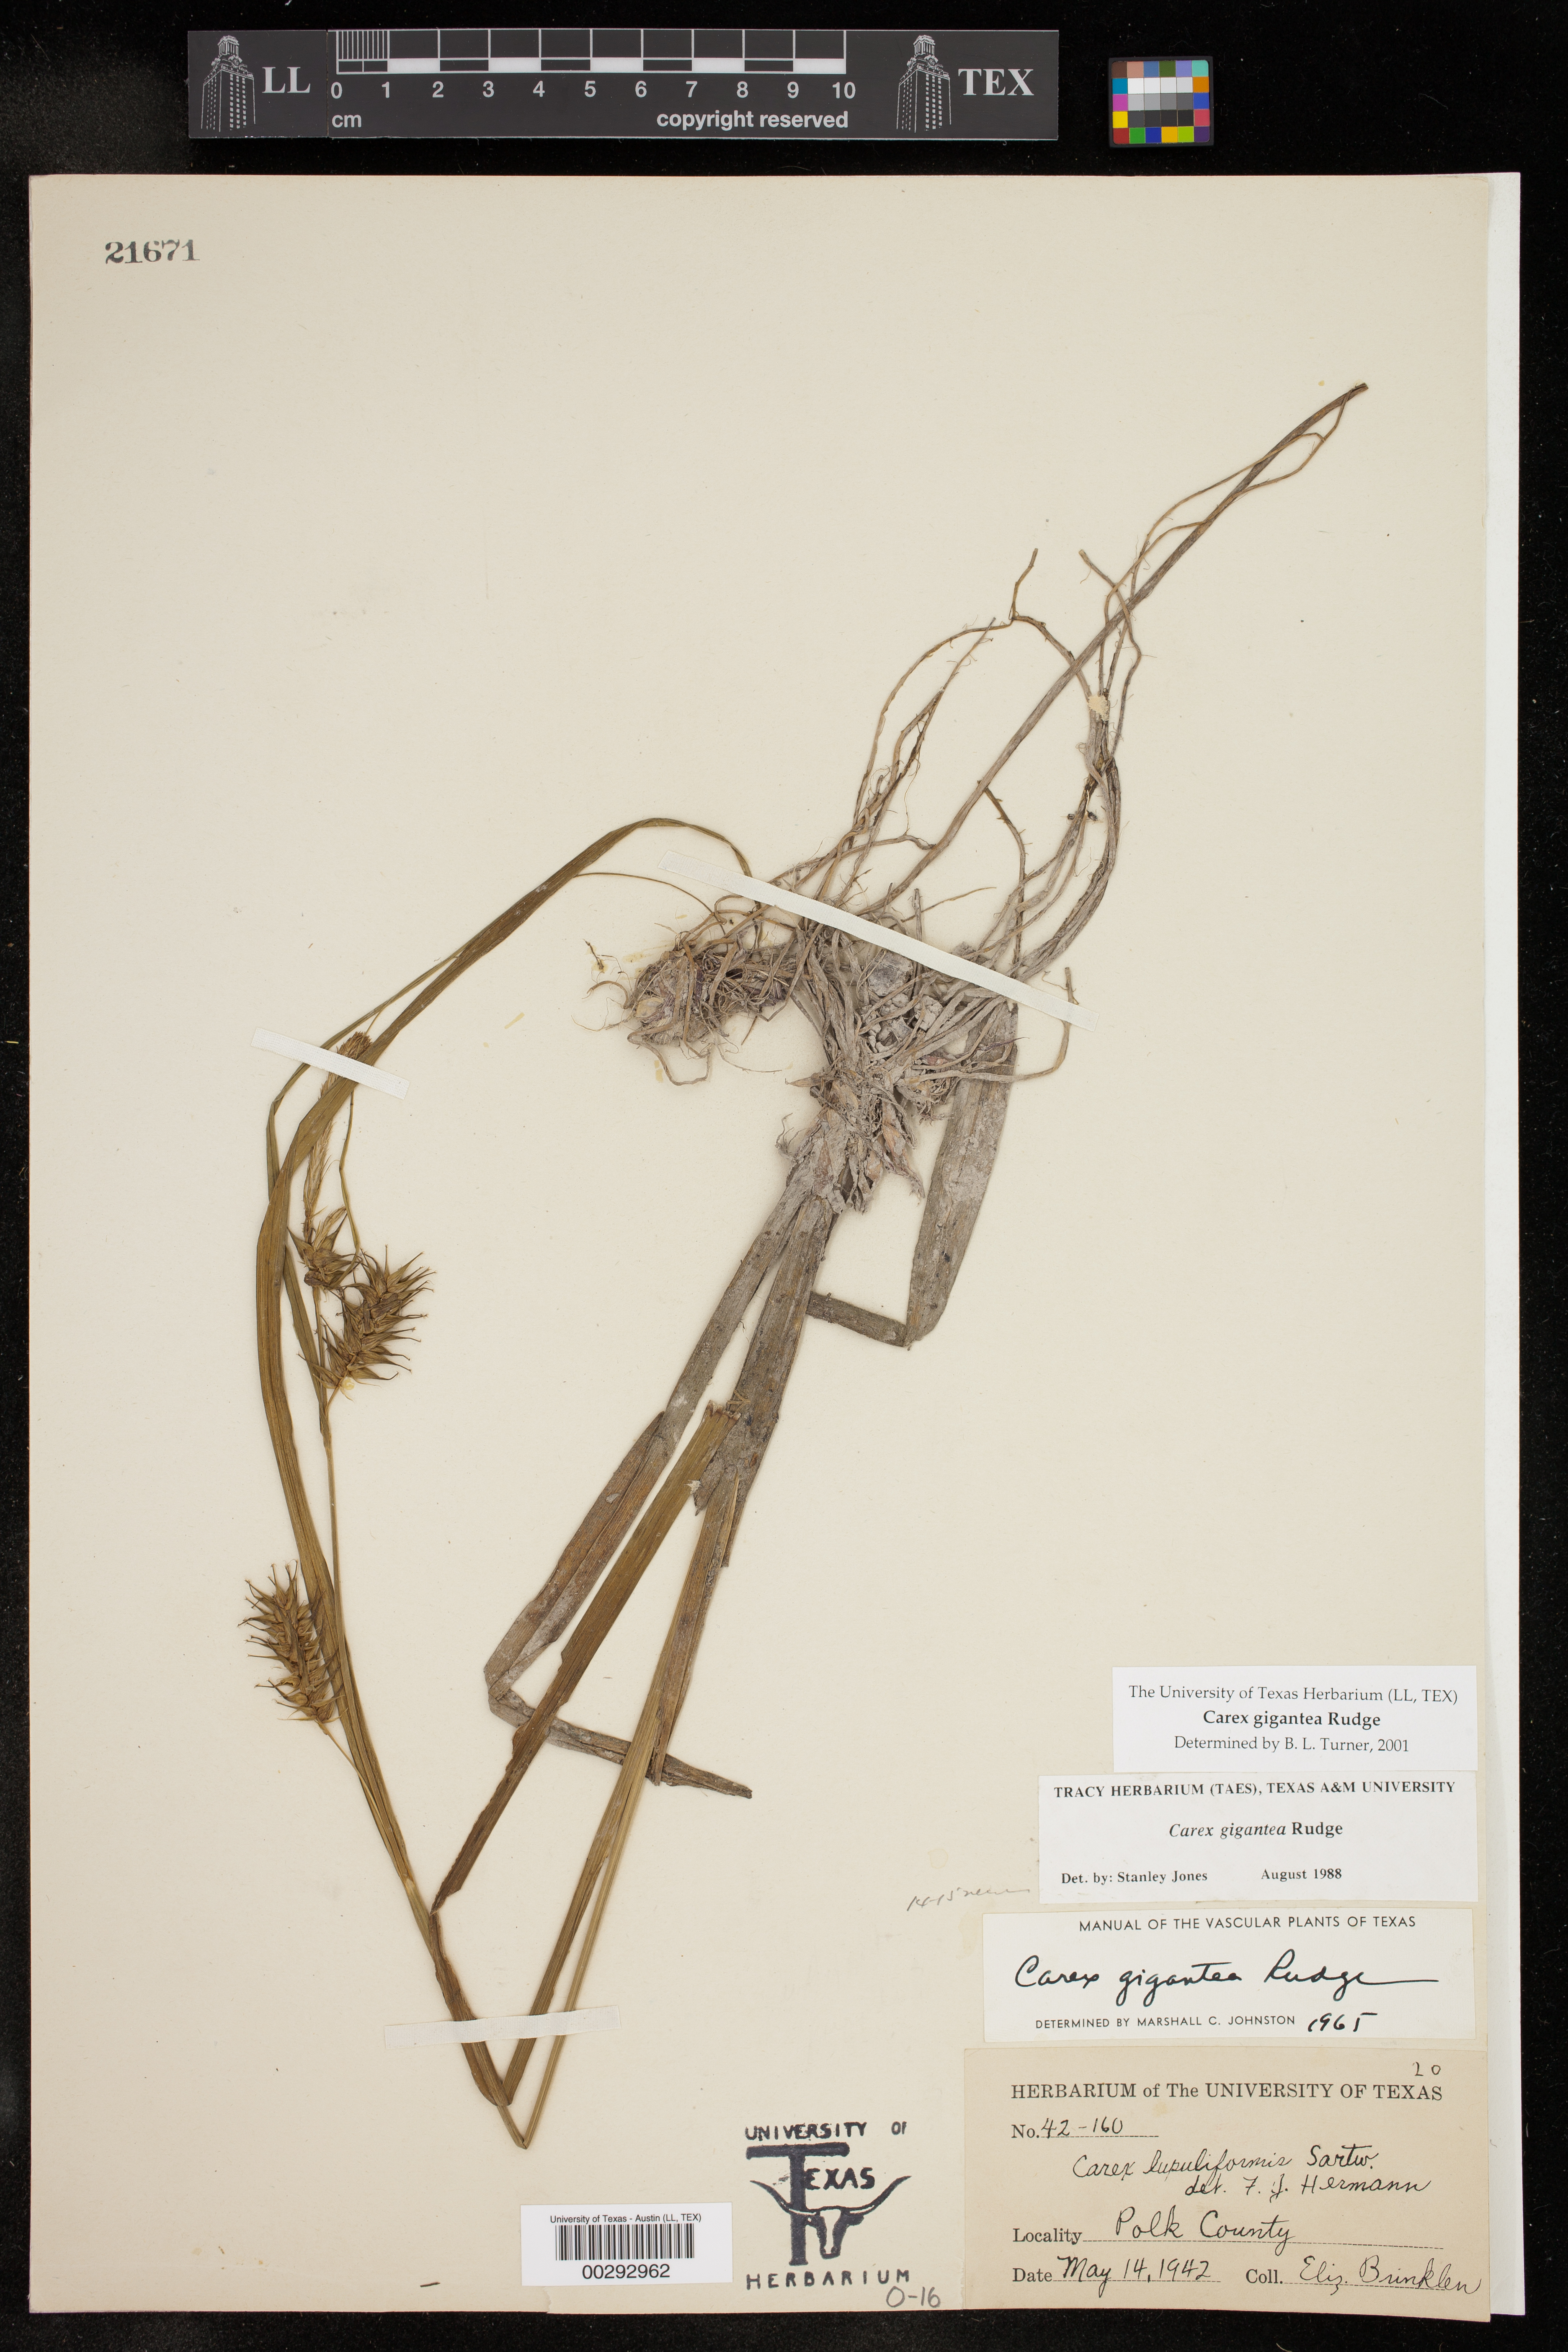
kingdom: Plantae
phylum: Tracheophyta
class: Liliopsida
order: Poales
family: Cyperaceae
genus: Carex
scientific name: Carex gigantea
